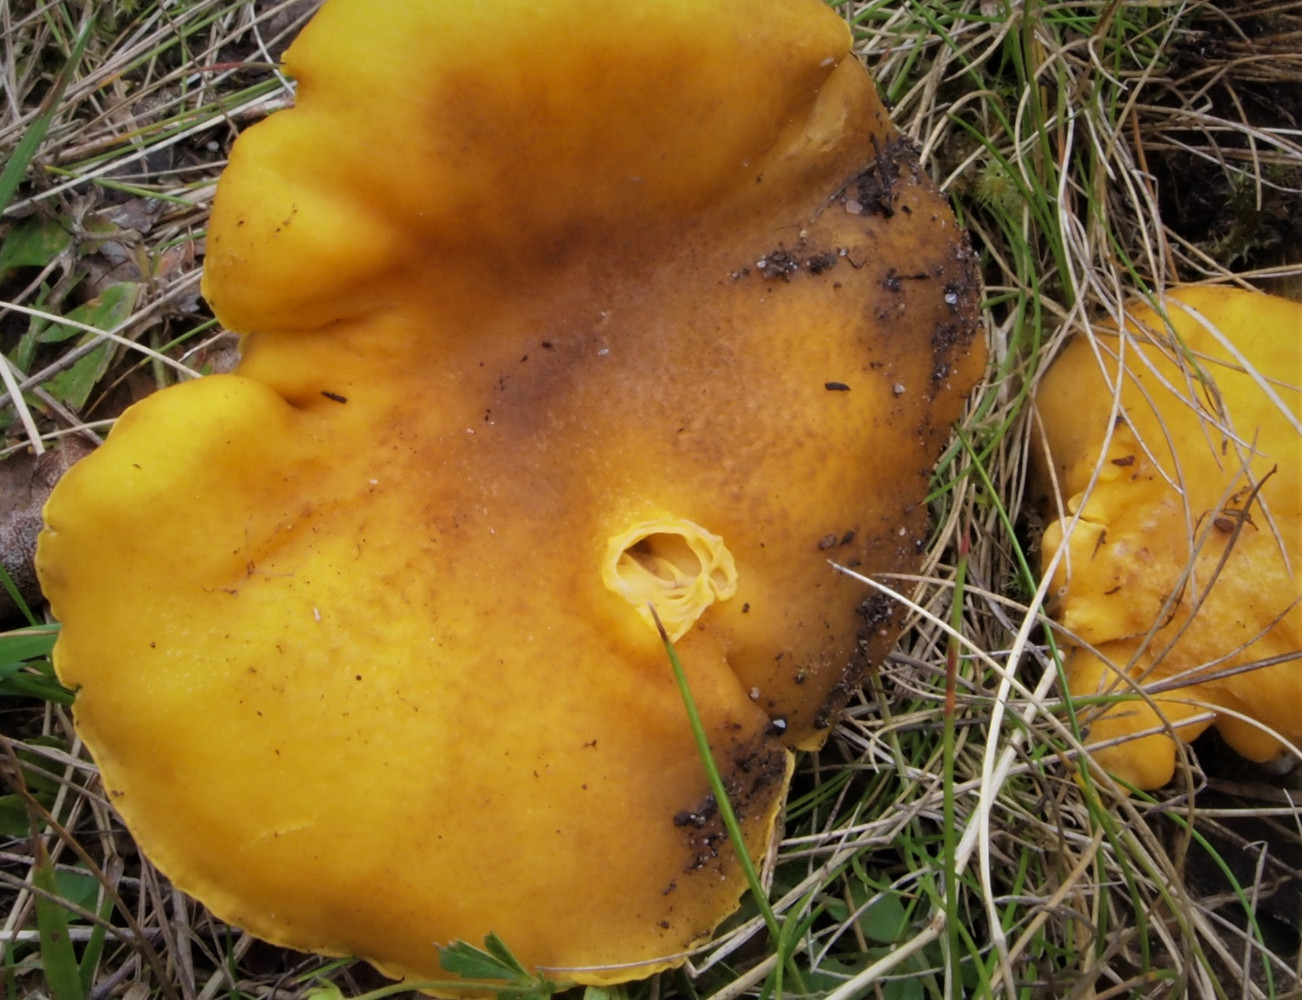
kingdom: Fungi
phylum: Basidiomycota
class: Agaricomycetes
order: Cantharellales
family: Hydnaceae
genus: Cantharellus
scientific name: Cantharellus amethysteus
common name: ametyst-kantarel
